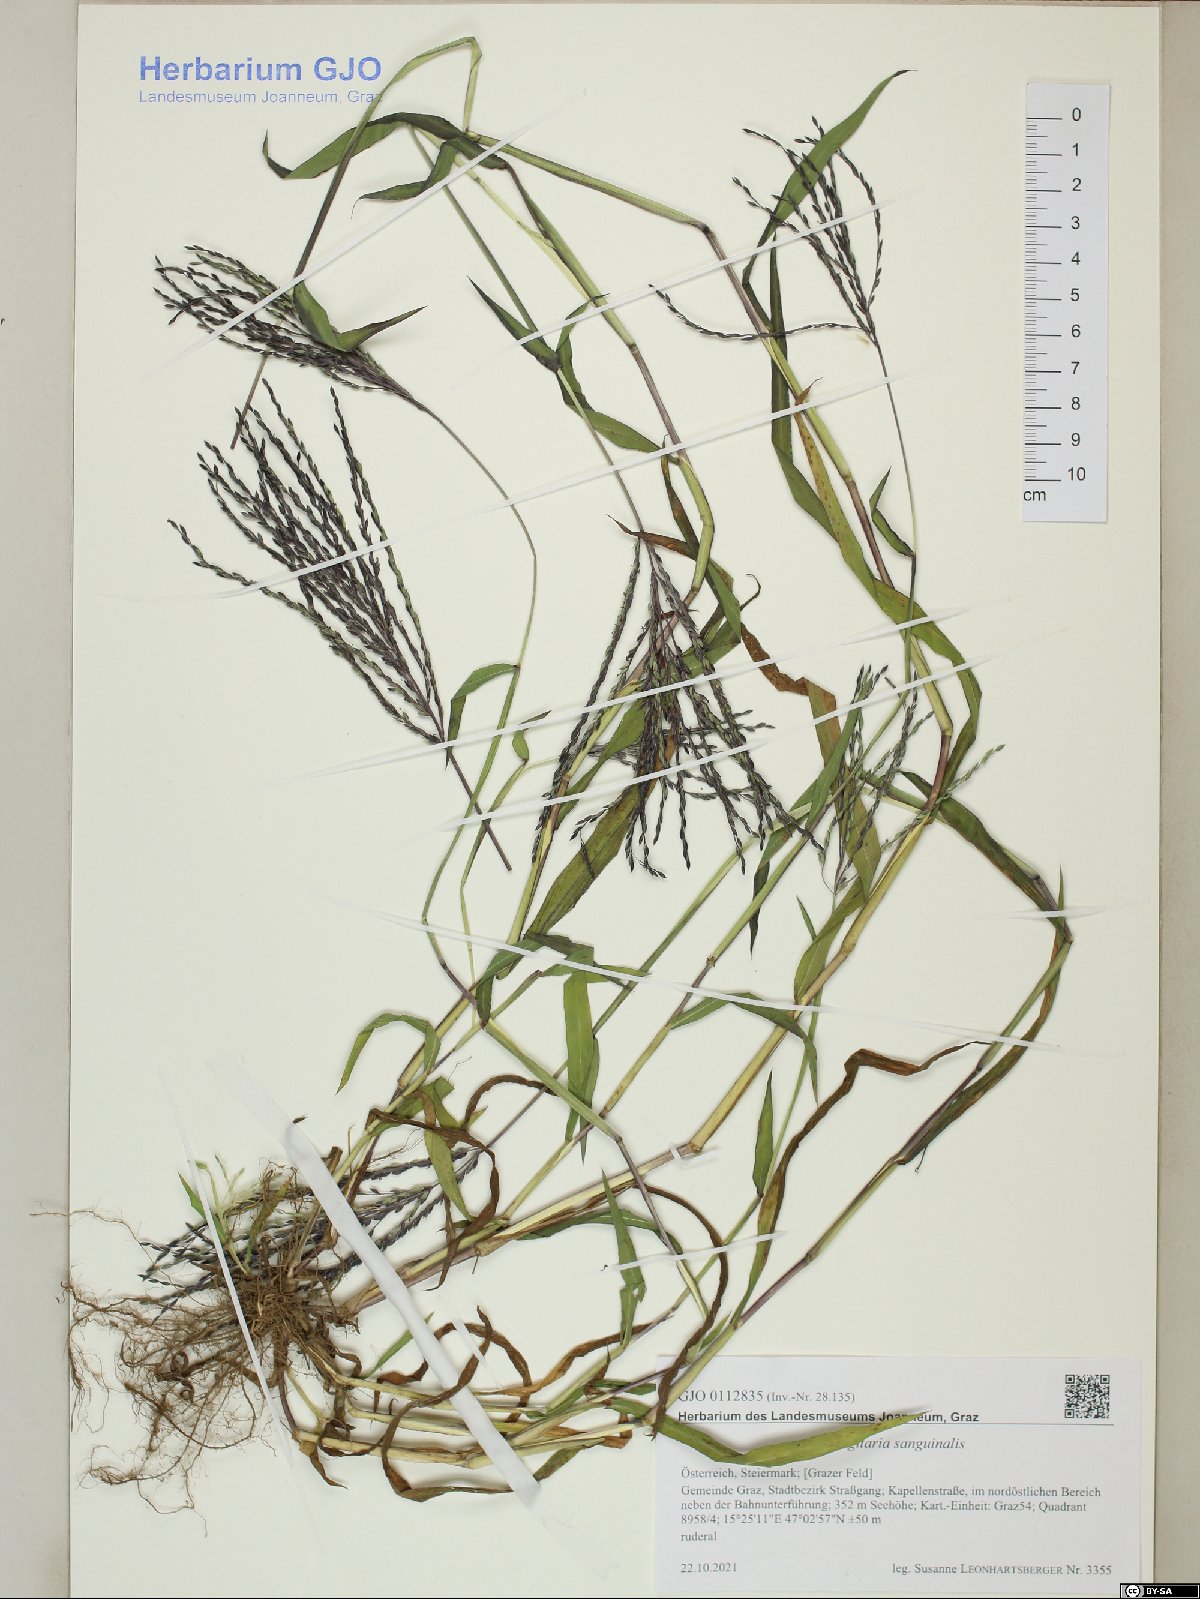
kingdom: Plantae
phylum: Tracheophyta
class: Liliopsida
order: Poales
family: Poaceae
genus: Digitaria
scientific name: Digitaria sanguinalis
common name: Hairy crabgrass
